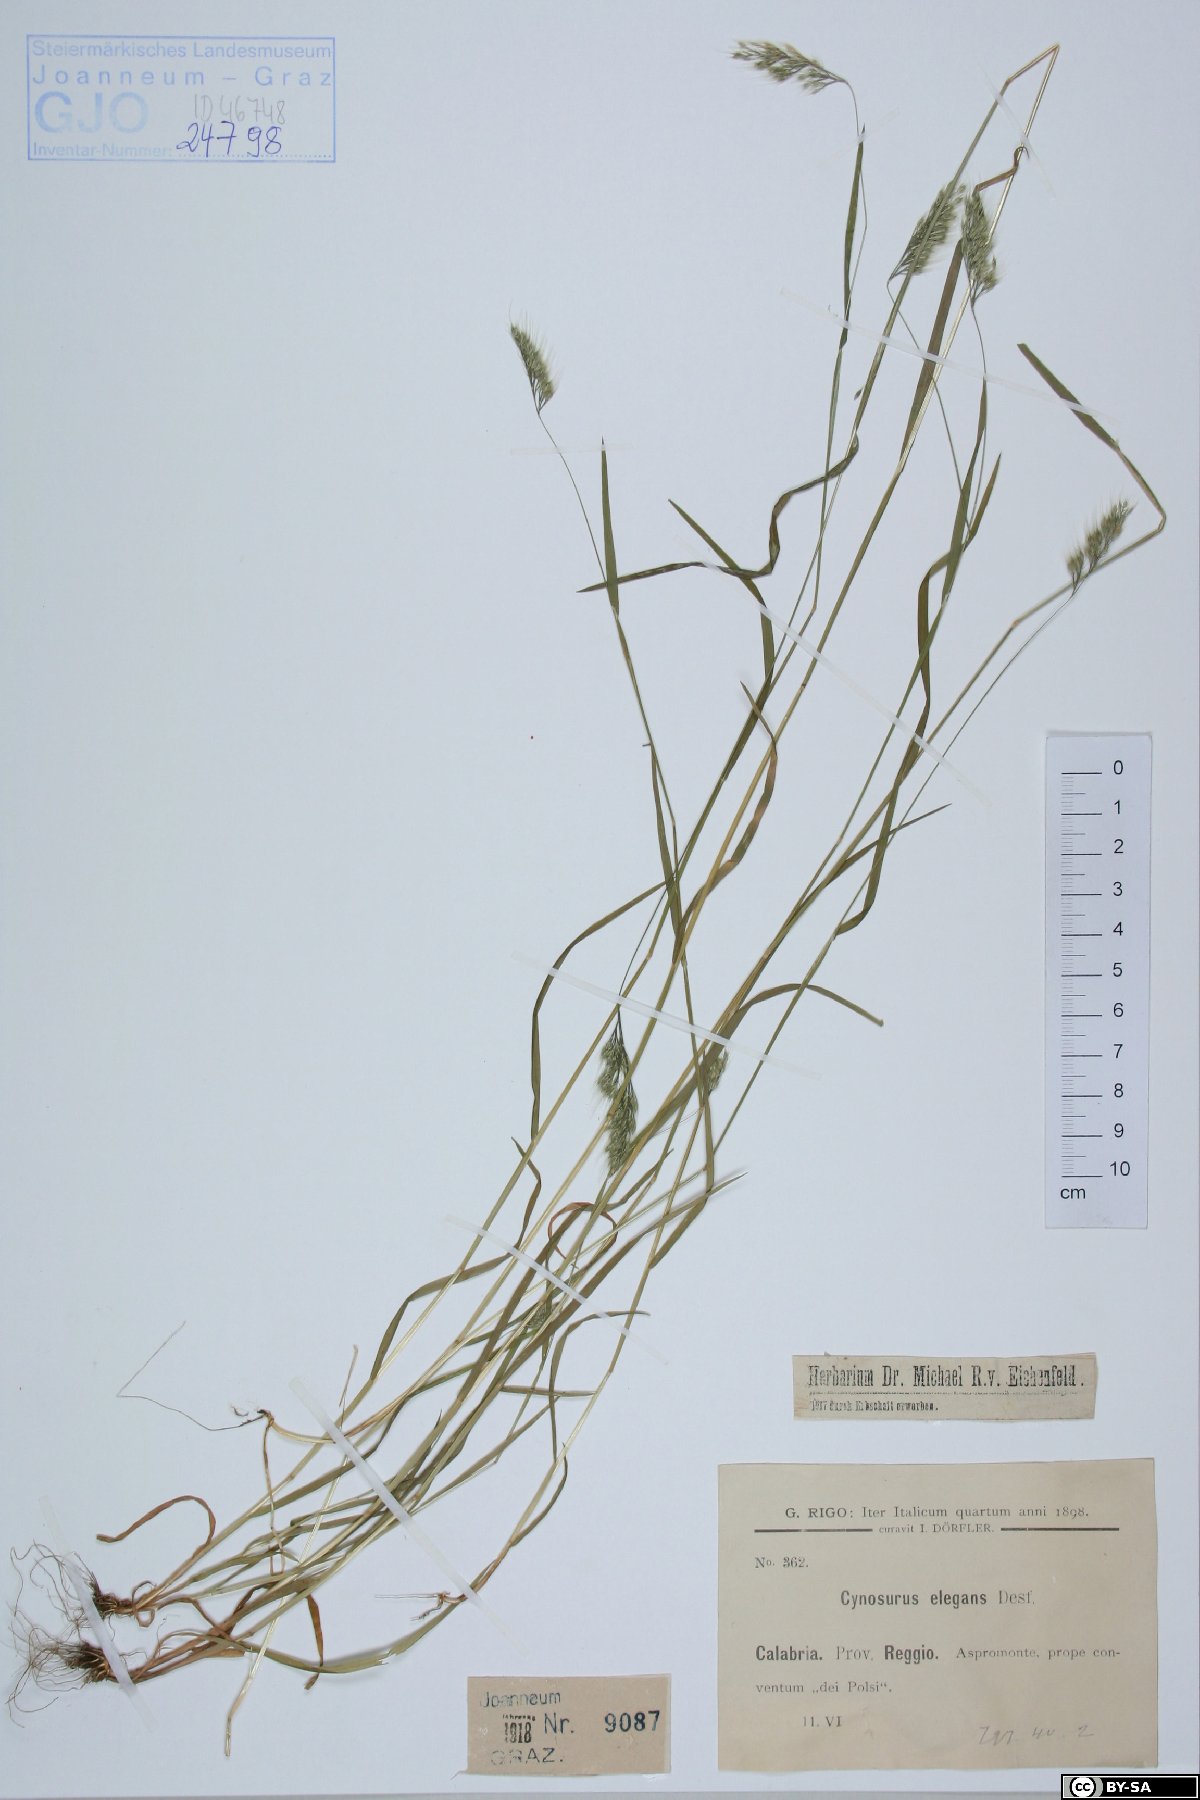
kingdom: Plantae
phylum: Tracheophyta
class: Liliopsida
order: Poales
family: Poaceae
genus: Cynosurus
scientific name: Cynosurus elegans
